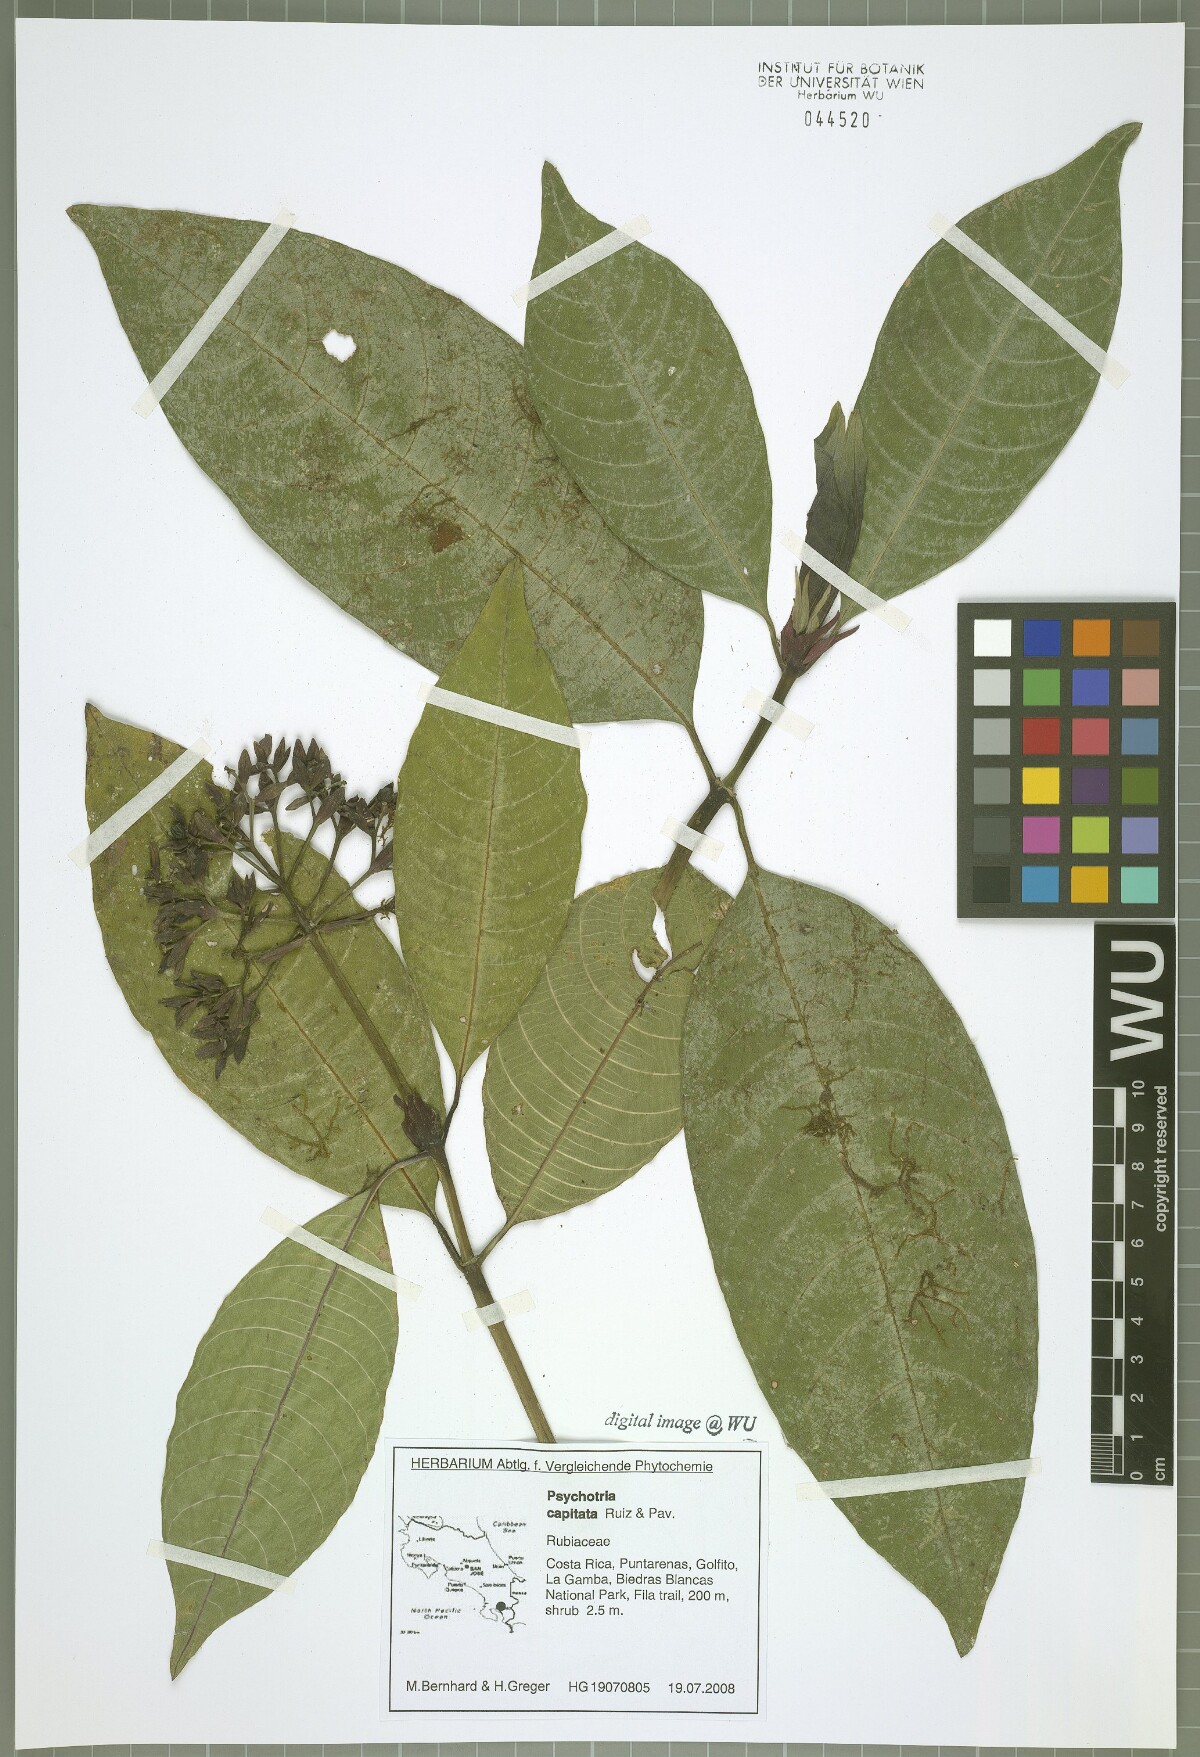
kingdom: Plantae
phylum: Tracheophyta
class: Magnoliopsida
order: Gentianales
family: Rubiaceae
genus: Palicourea
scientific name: Palicourea violacea
